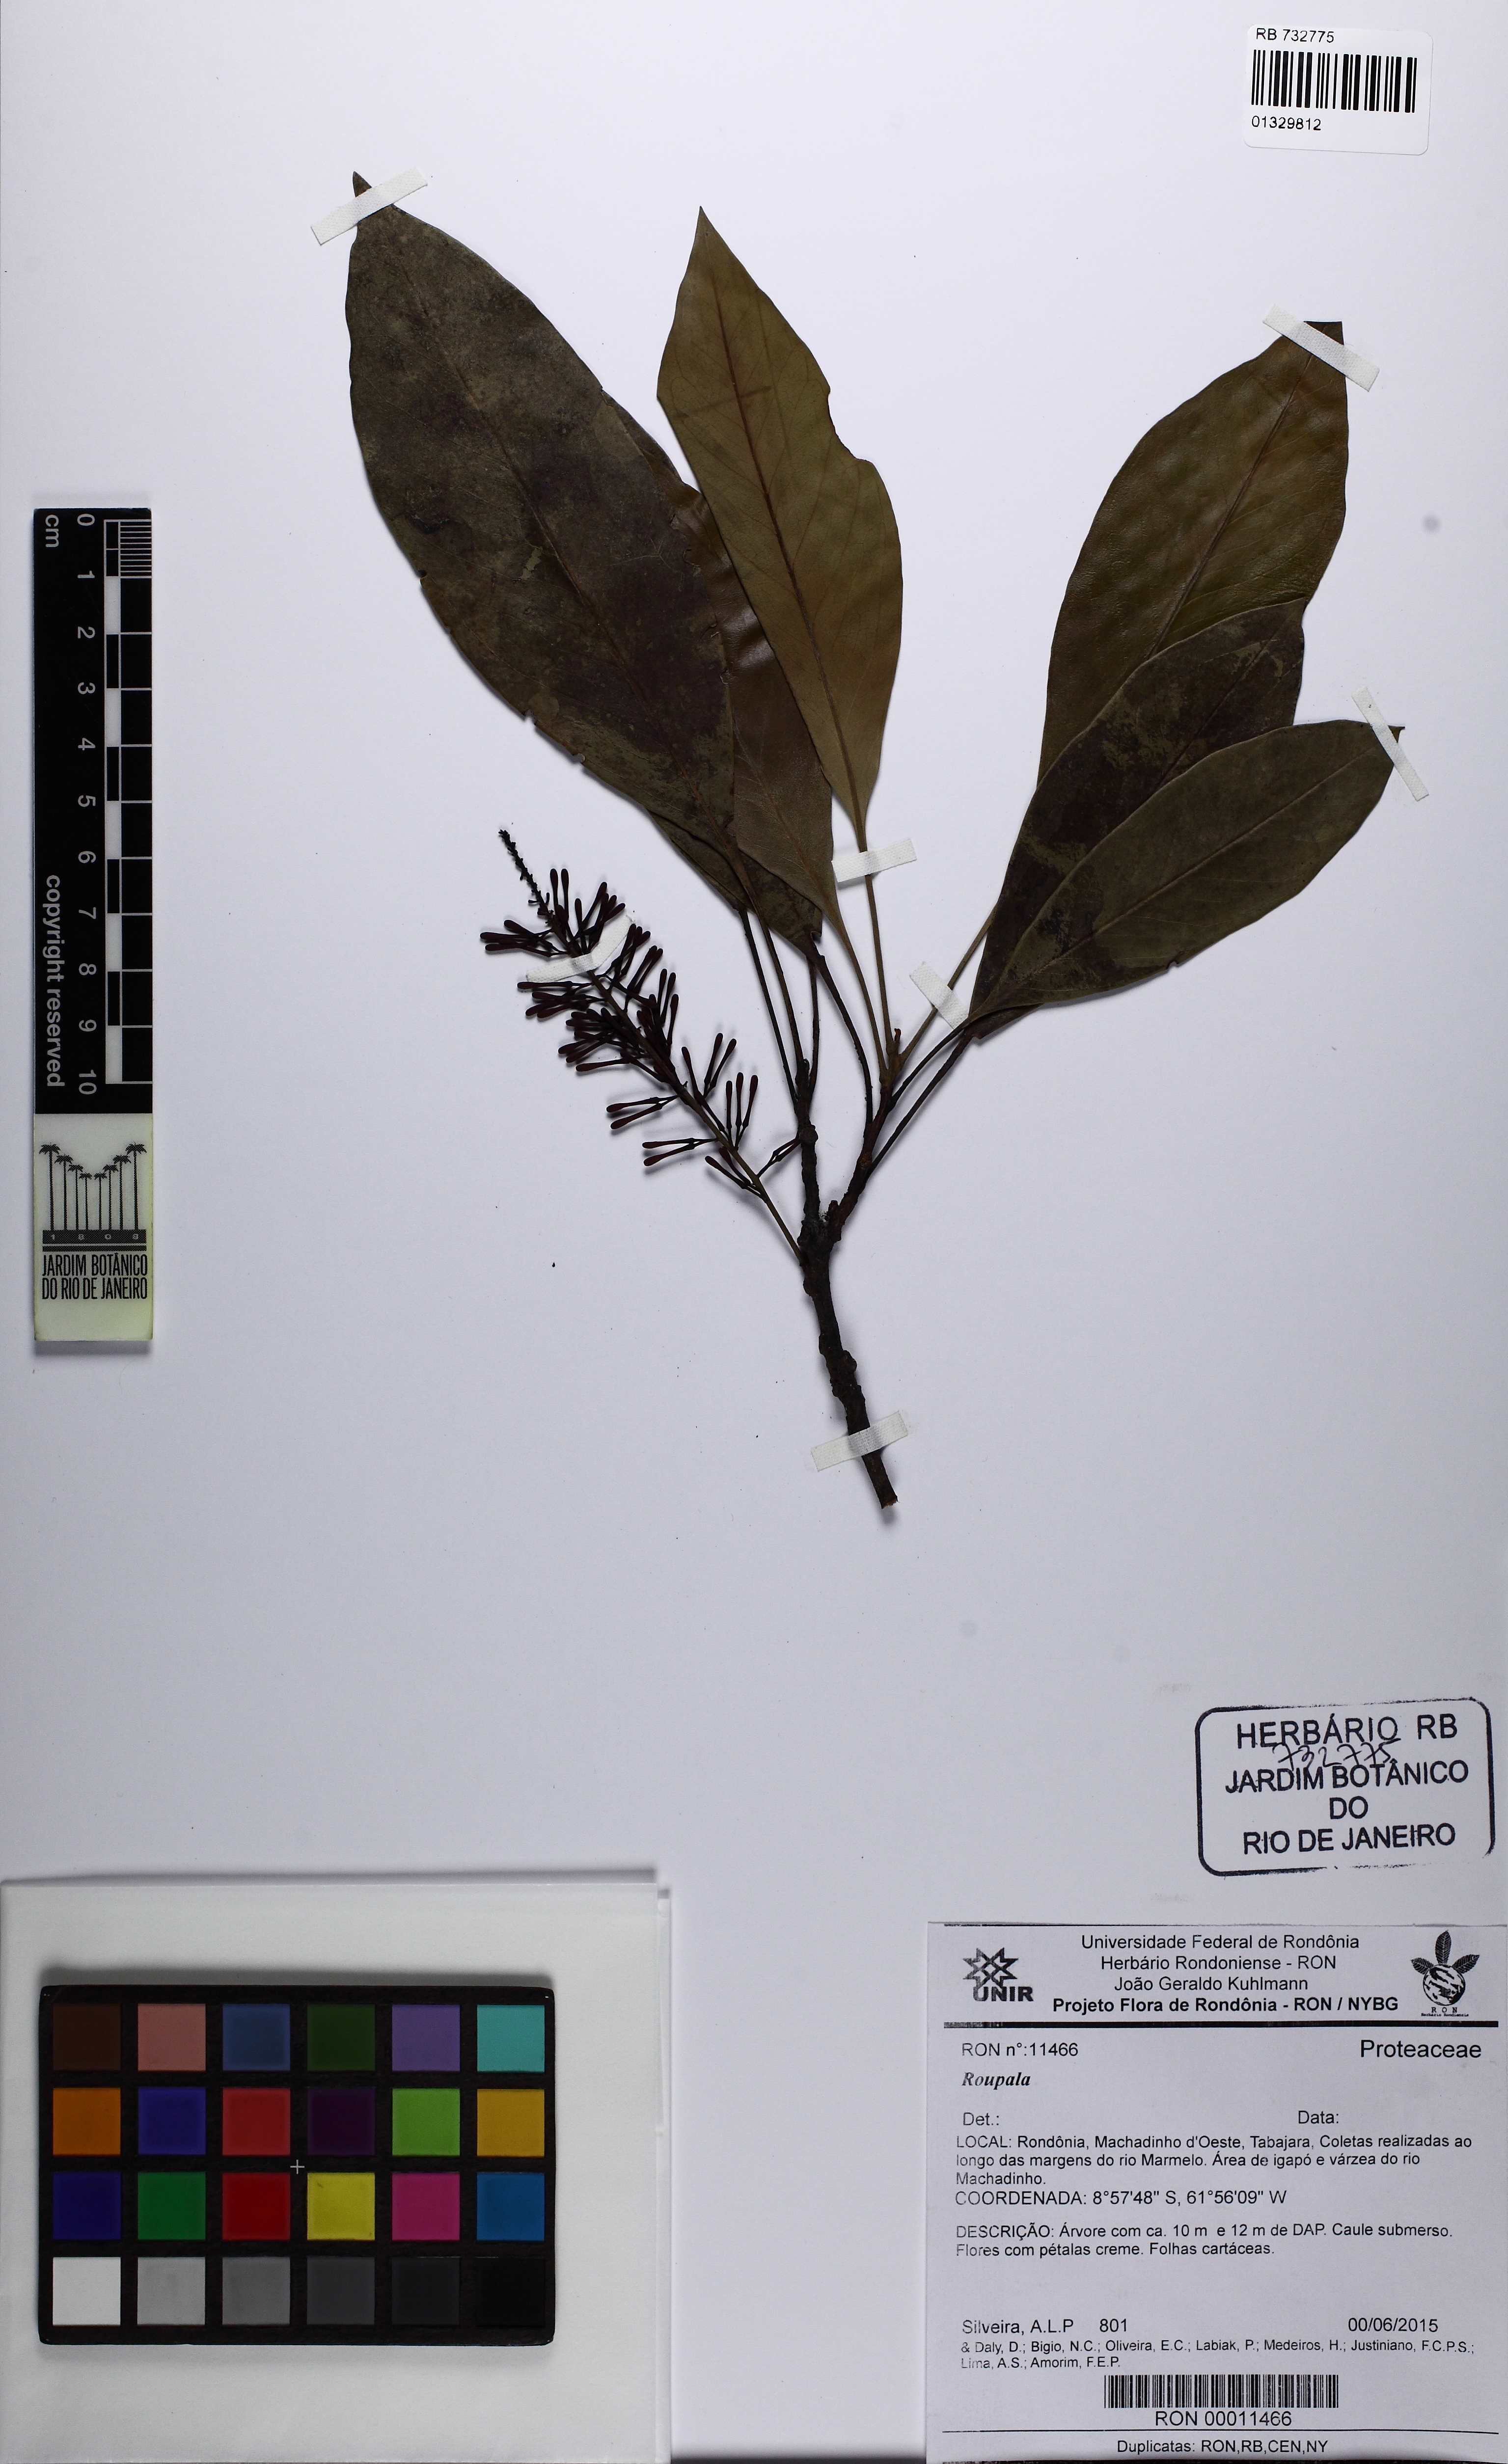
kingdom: Plantae
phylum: Tracheophyta
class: Magnoliopsida
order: Proteales
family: Proteaceae
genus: Roupala
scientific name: Roupala
